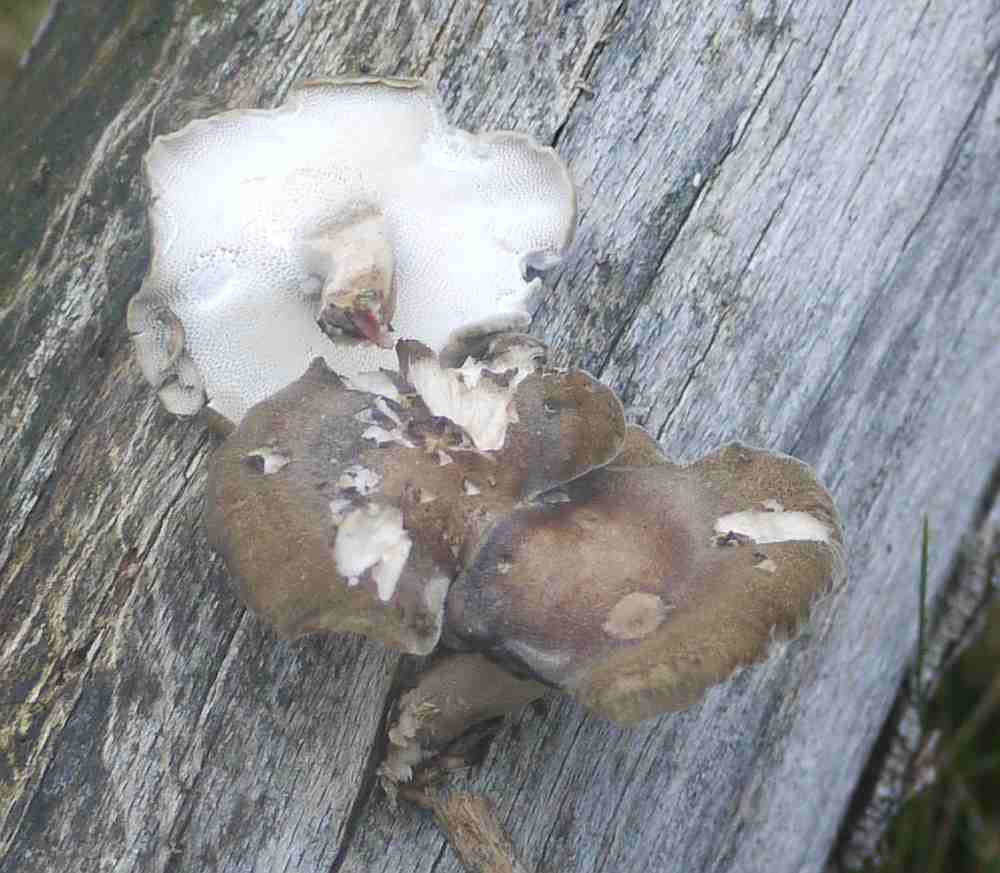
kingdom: Fungi
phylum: Basidiomycota
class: Agaricomycetes
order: Polyporales
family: Polyporaceae
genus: Lentinus
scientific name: Lentinus brumalis
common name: vinter-stilkporesvamp
